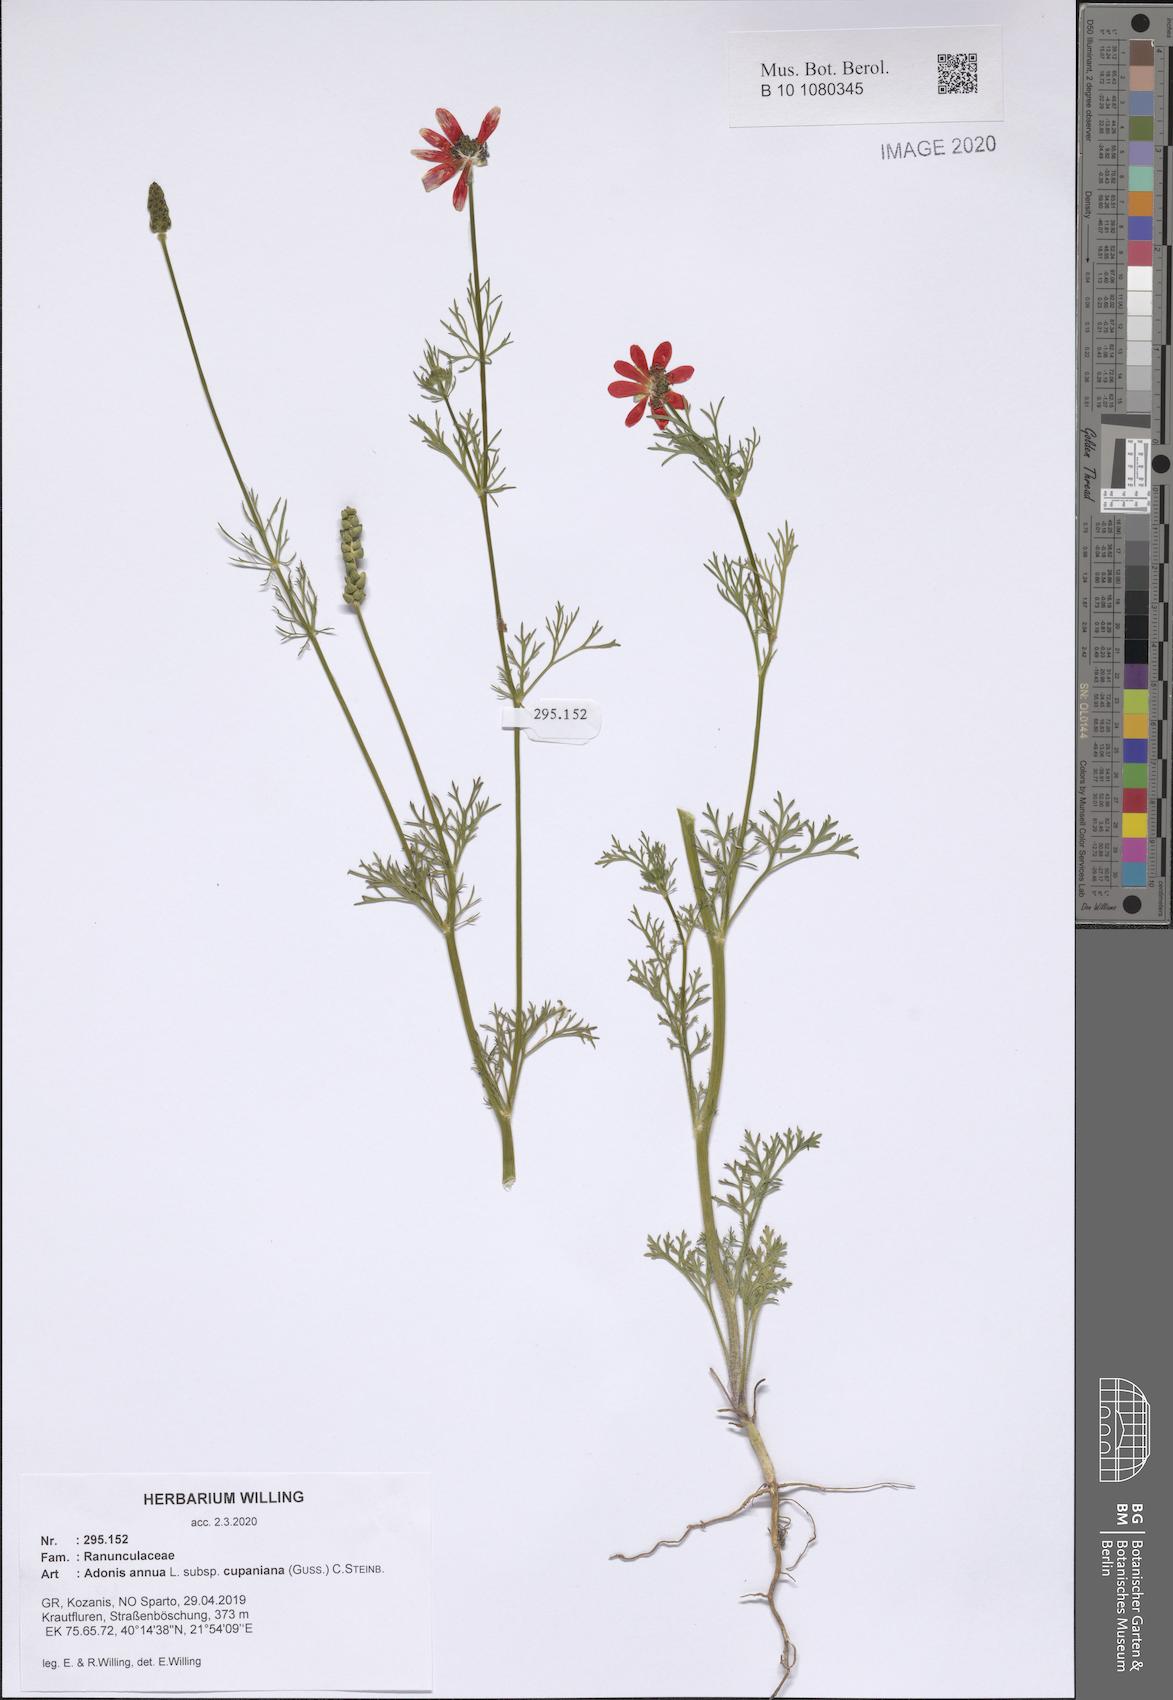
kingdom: Plantae
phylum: Tracheophyta
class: Magnoliopsida
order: Ranunculales
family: Ranunculaceae
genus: Adonis
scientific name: Adonis annua
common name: Pheasant's-eye
